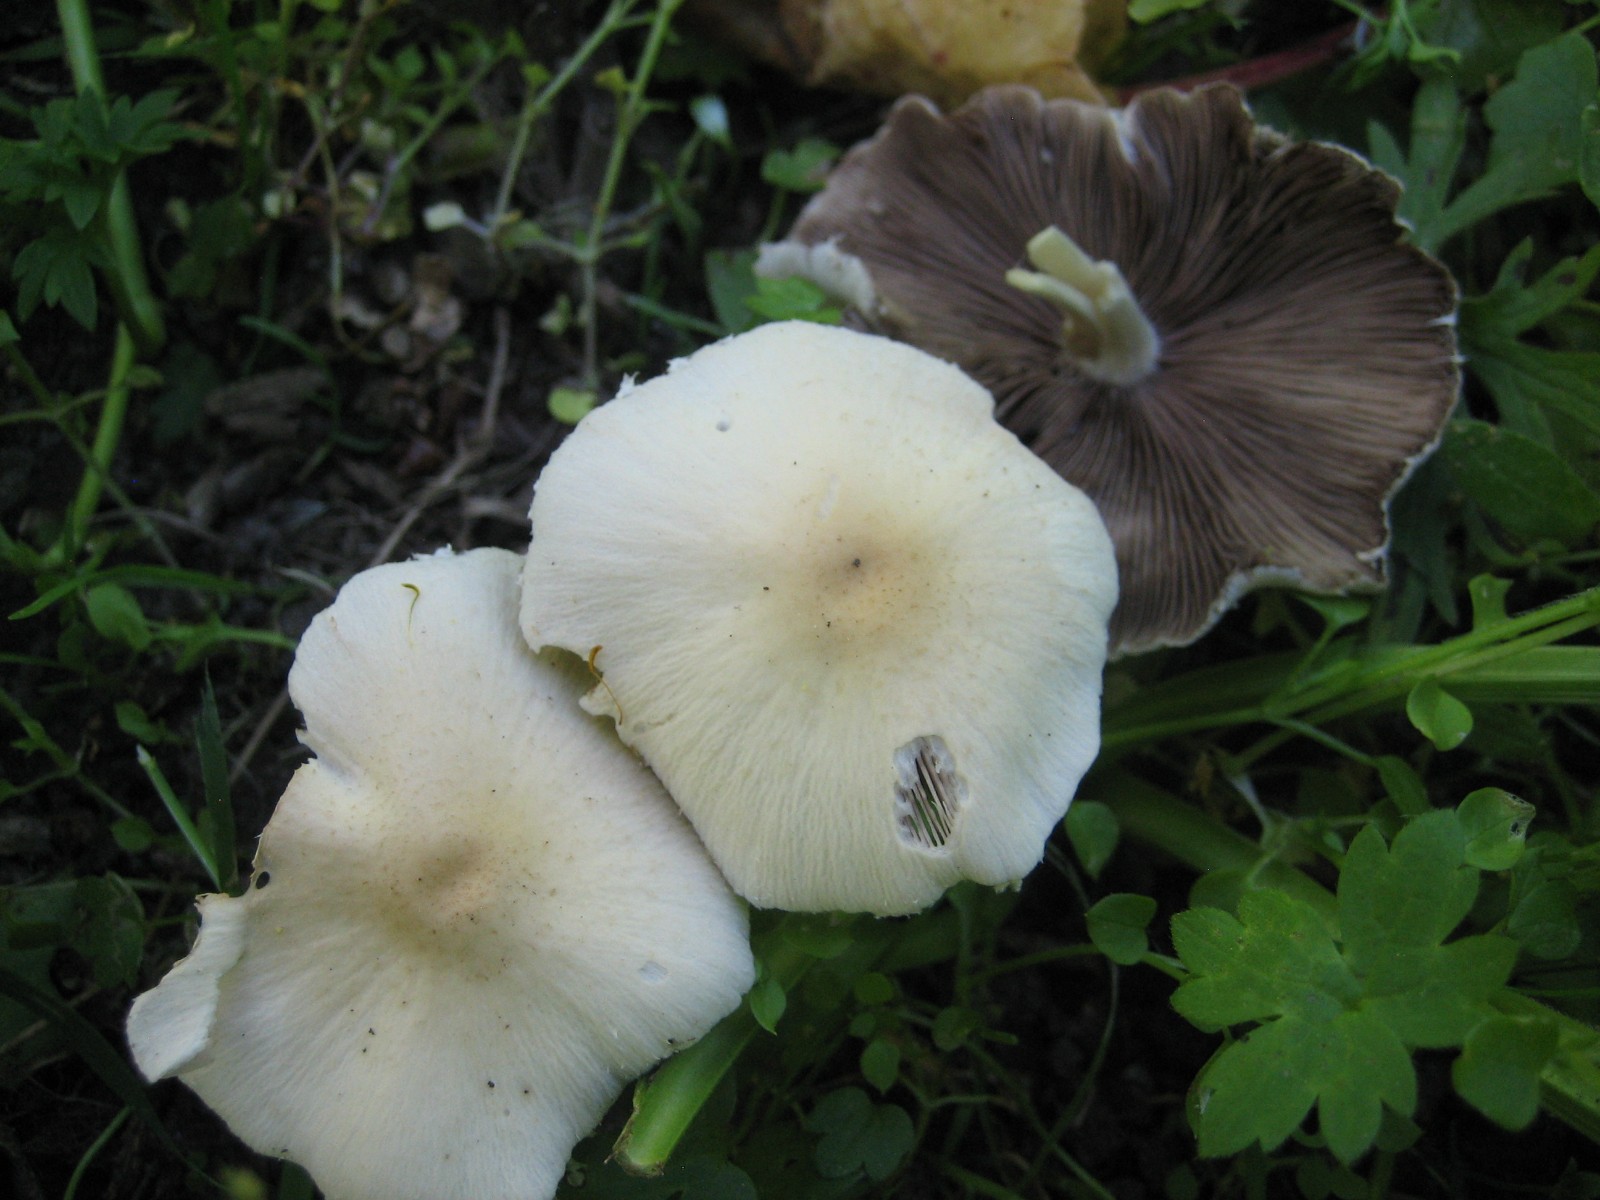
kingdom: Fungi
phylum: Basidiomycota
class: Agaricomycetes
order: Agaricales
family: Psathyrellaceae
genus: Candolleomyces
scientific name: Candolleomyces candolleanus
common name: Candolles mørkhat
